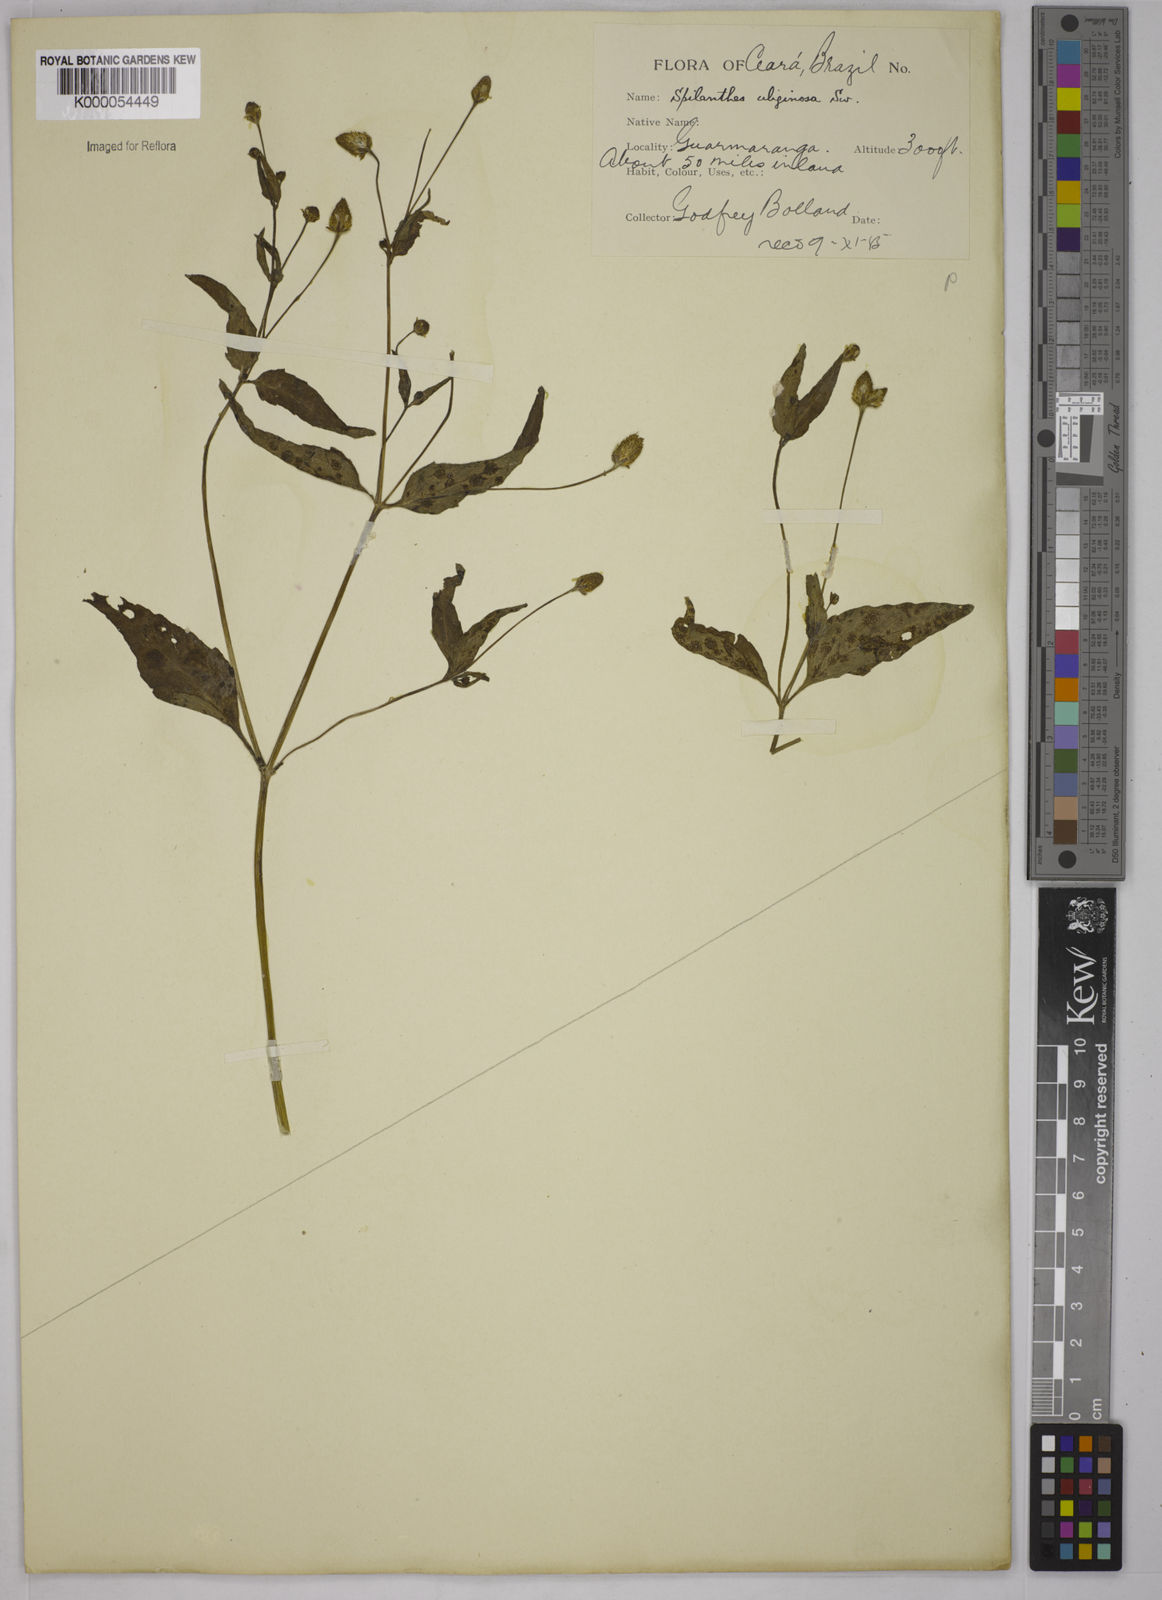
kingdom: Plantae
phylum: Tracheophyta
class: Magnoliopsida
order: Asterales
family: Asteraceae
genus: Acmella
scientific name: Acmella uliginosa
